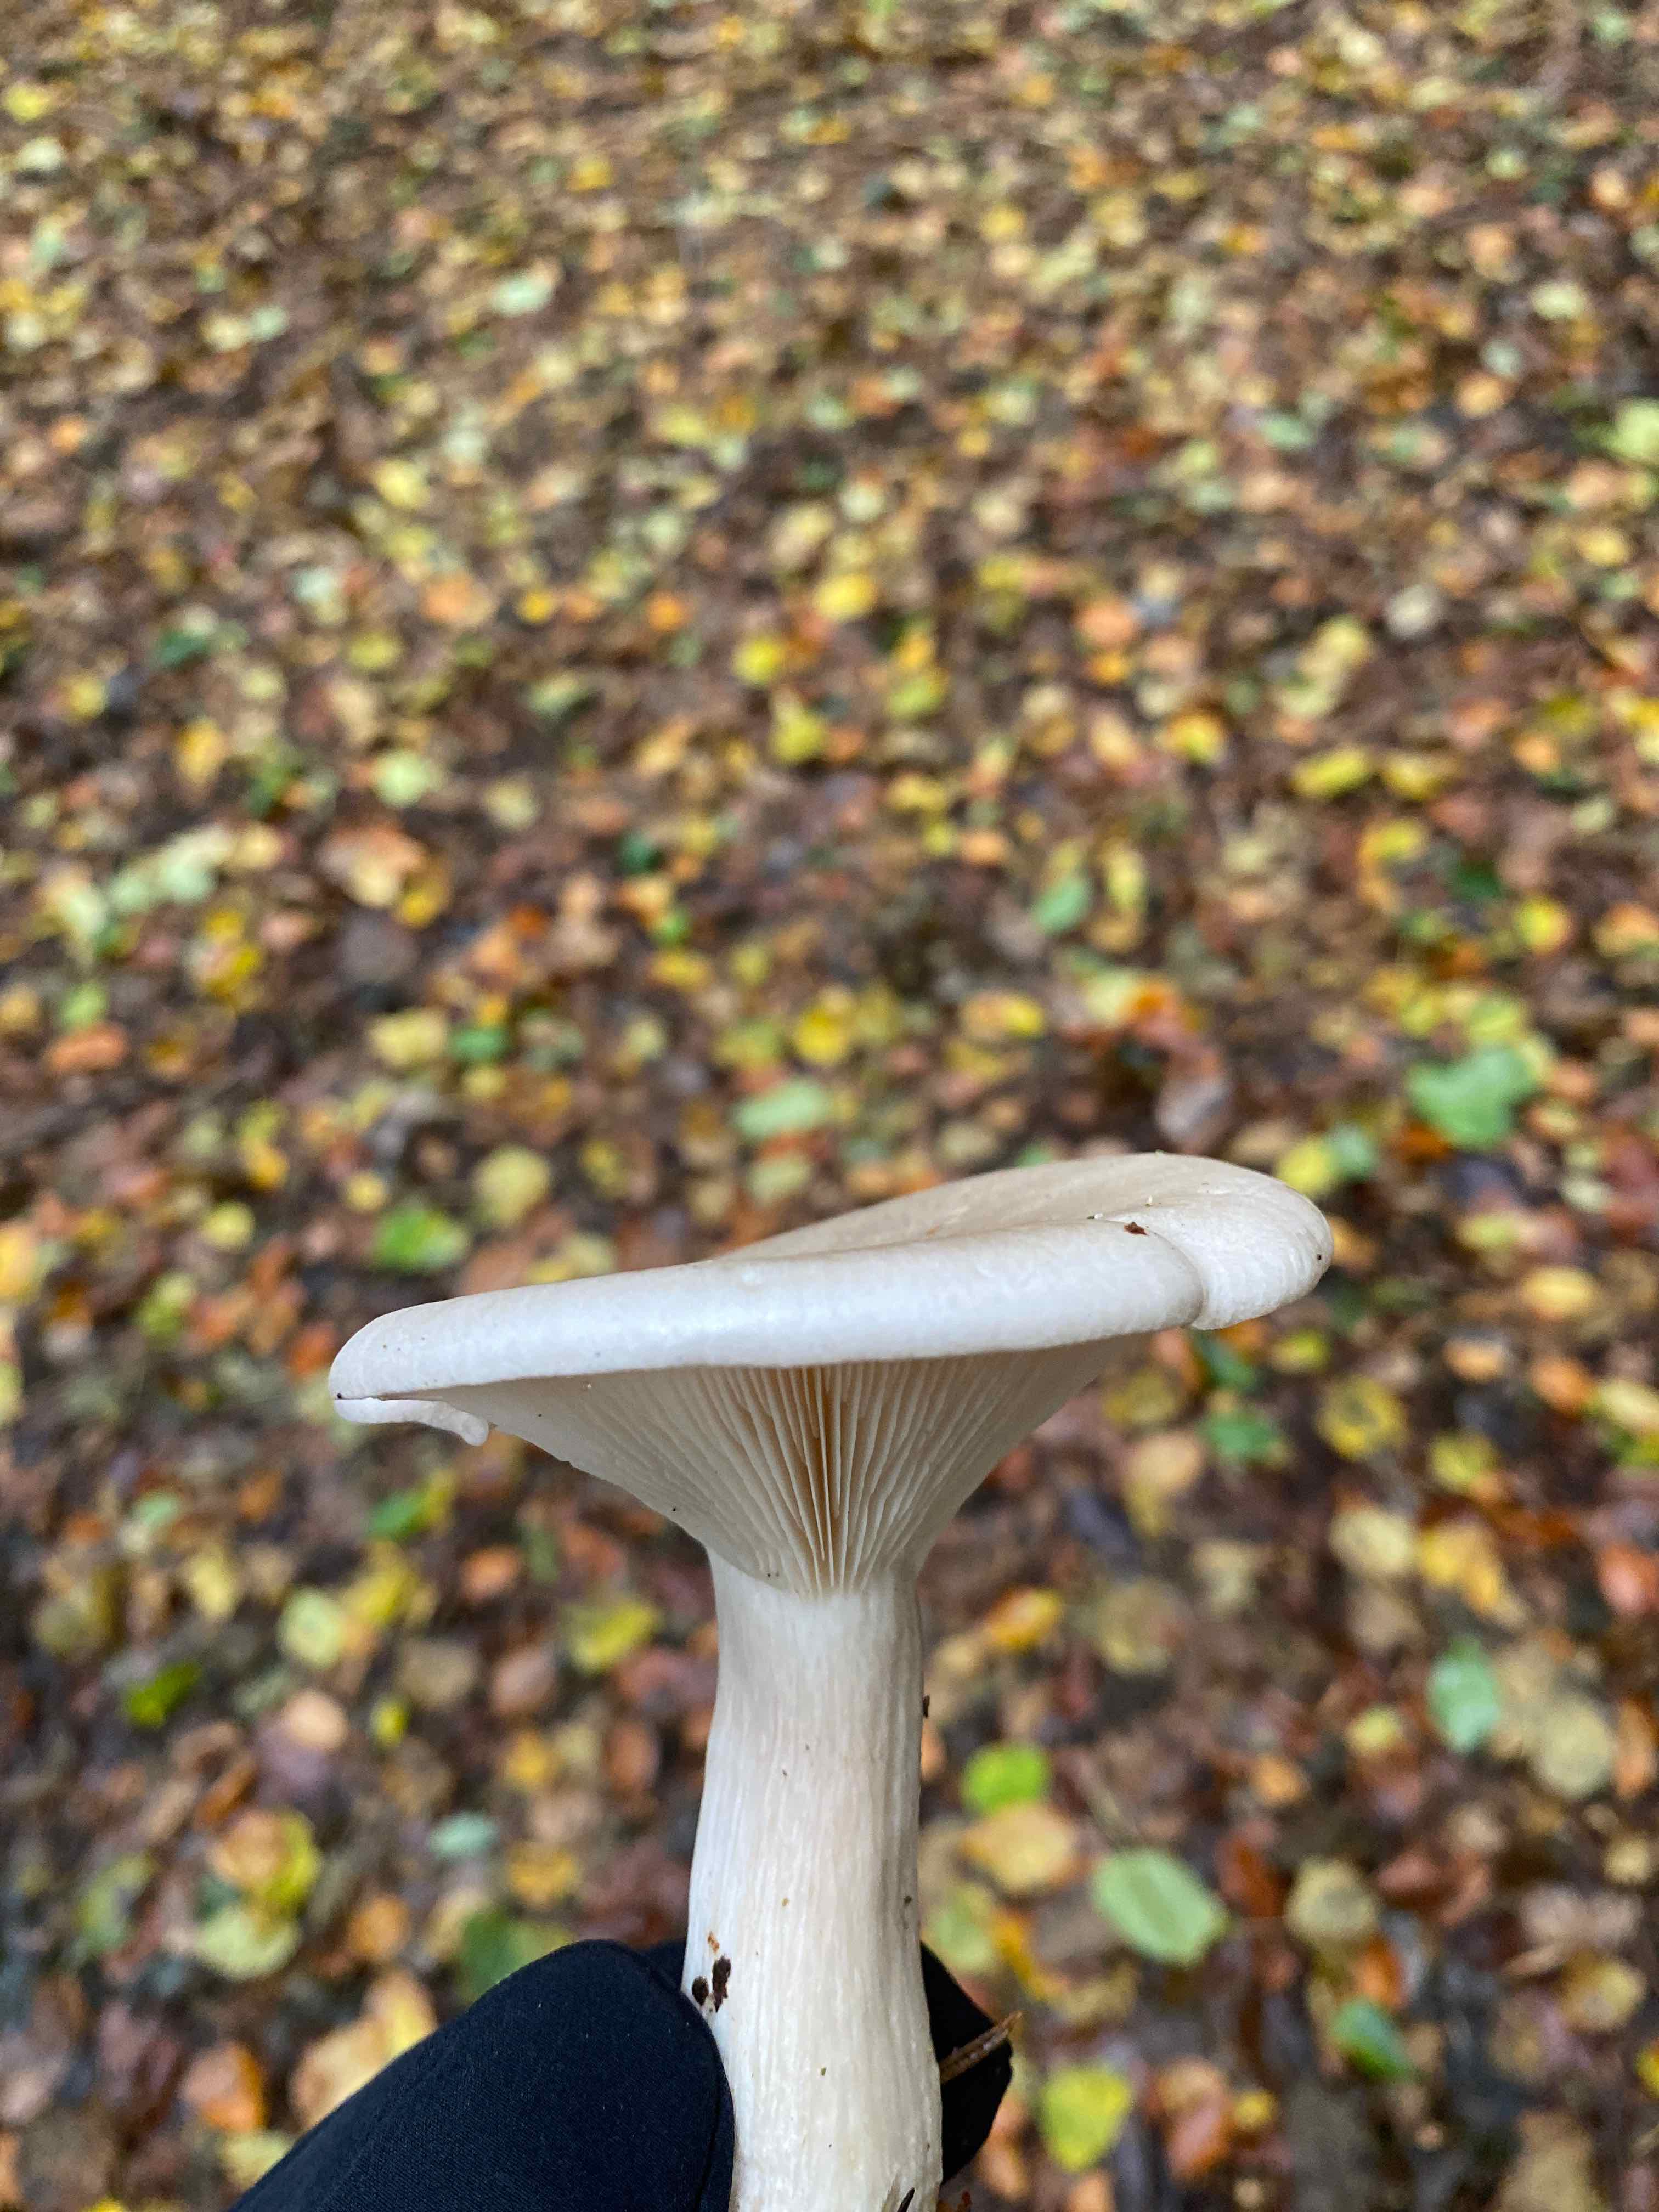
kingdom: Fungi
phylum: Basidiomycota
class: Agaricomycetes
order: Agaricales
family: Tricholomataceae
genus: Clitocybe
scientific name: Clitocybe nebularis
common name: tåge-tragthat
